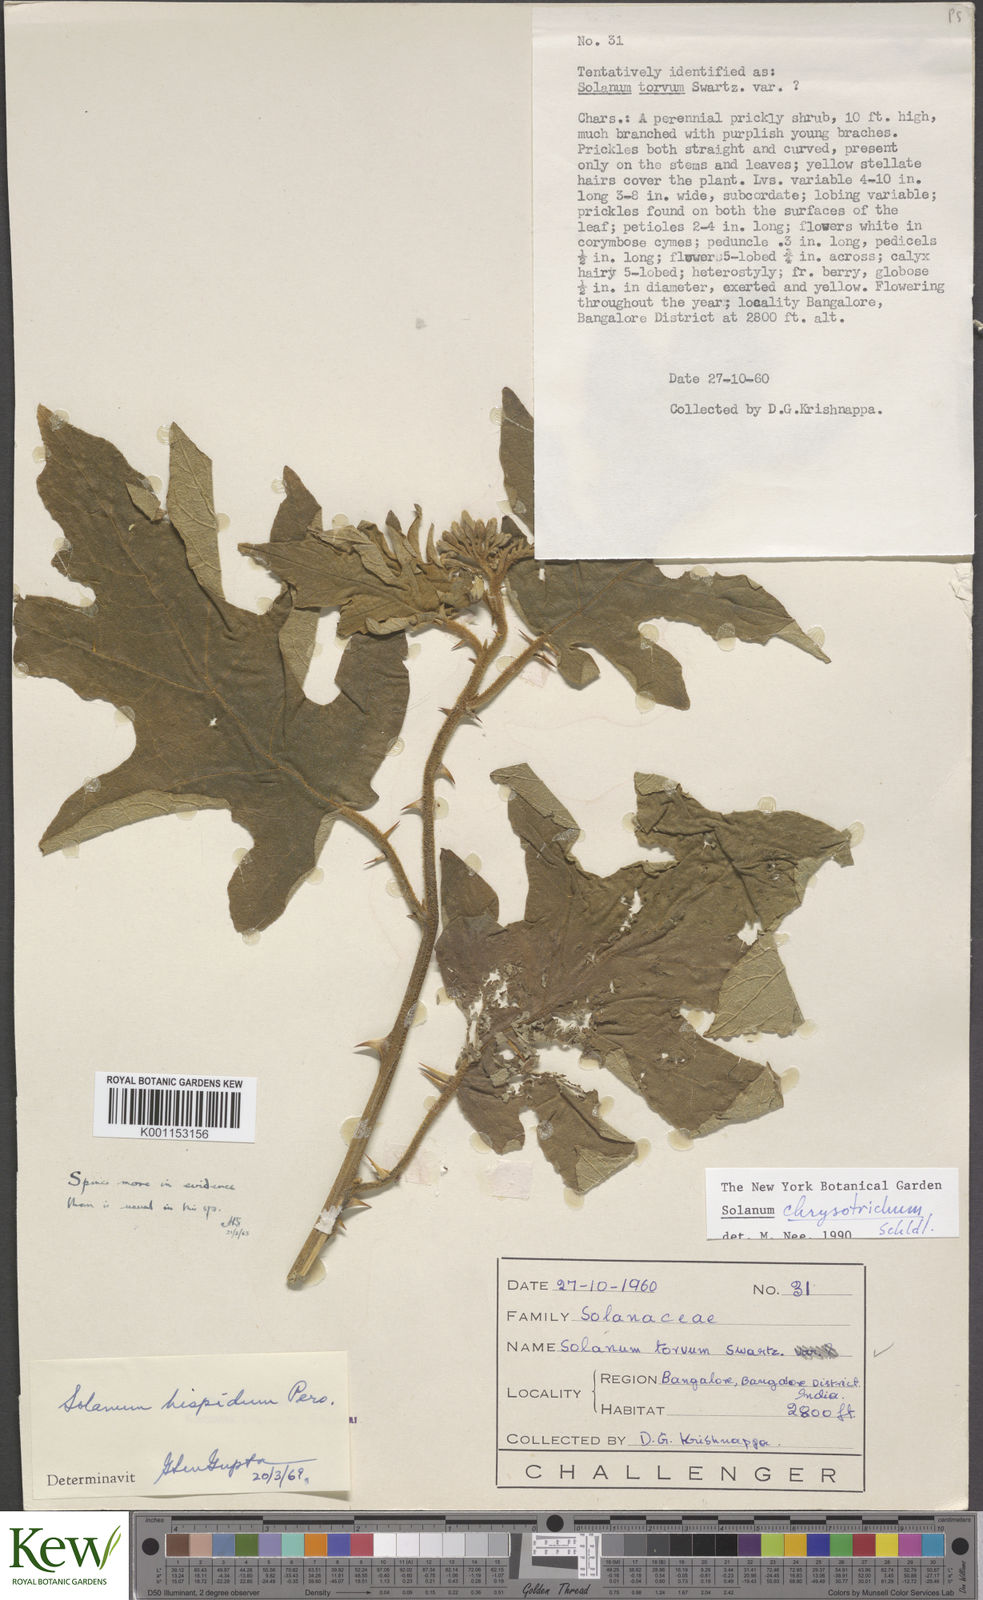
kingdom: Plantae
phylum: Tracheophyta
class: Magnoliopsida
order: Solanales
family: Solanaceae
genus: Solanum
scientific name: Solanum chrysotrichum
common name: Nightshade
